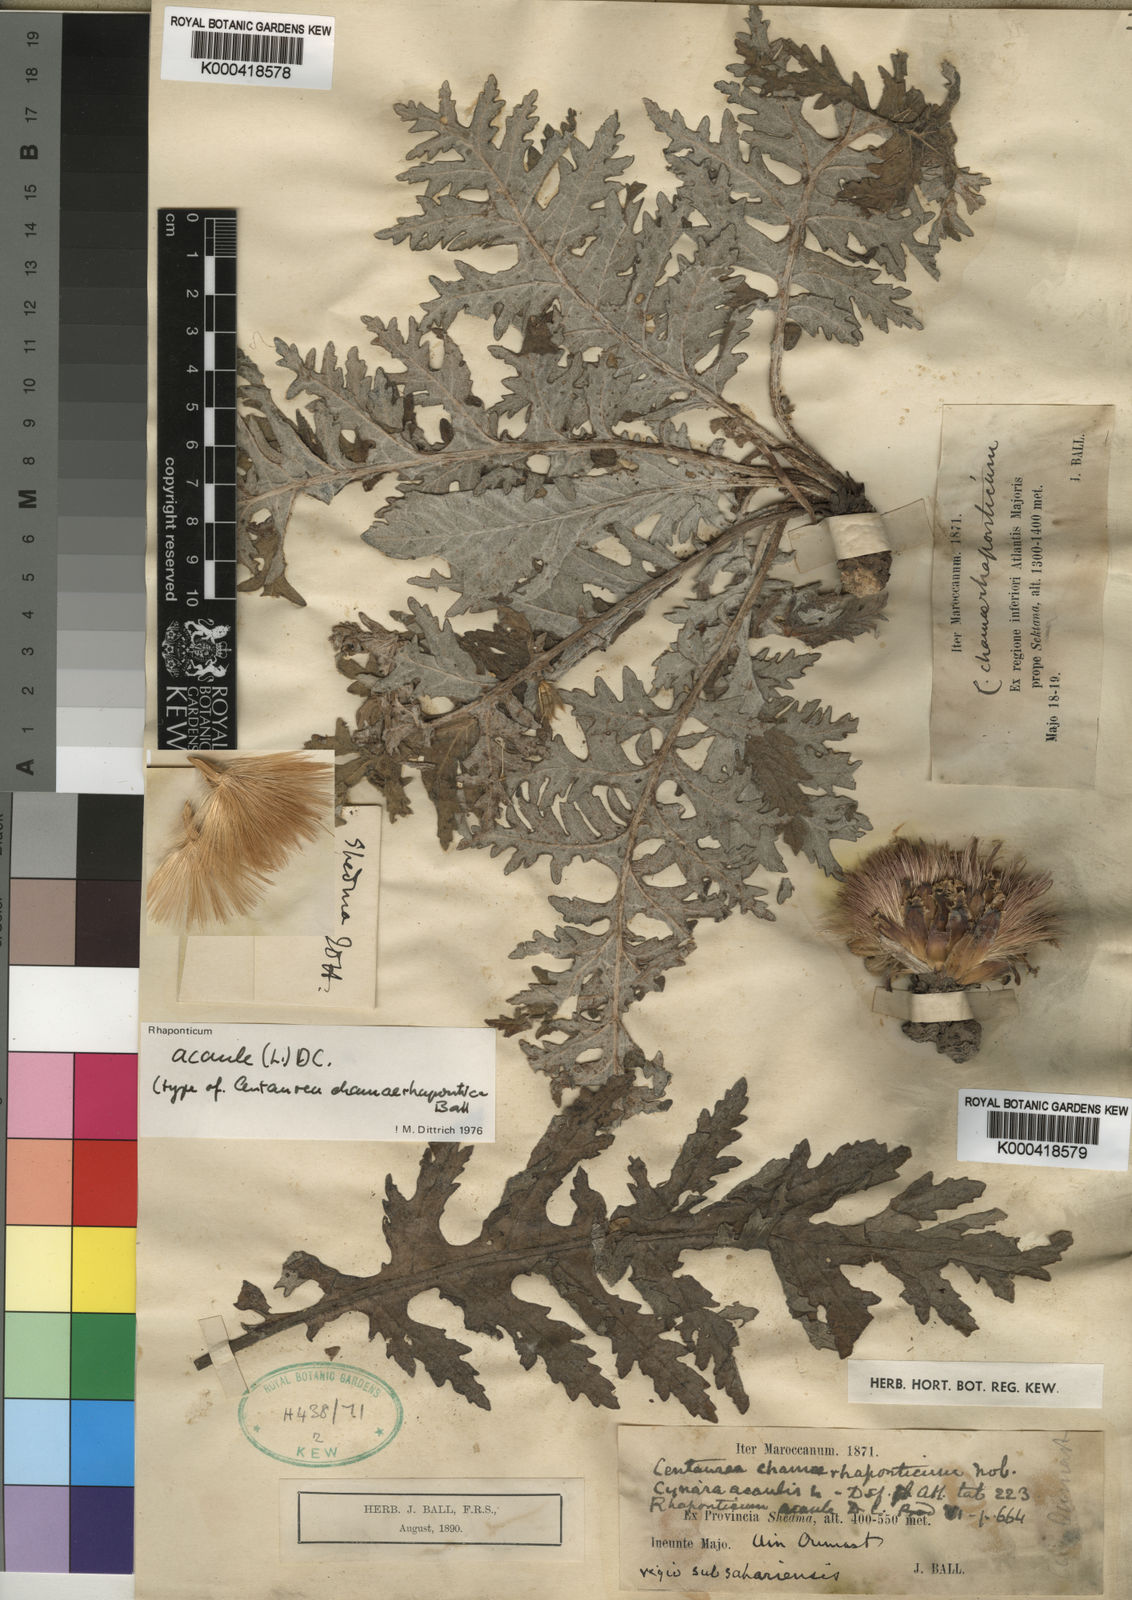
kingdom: Plantae
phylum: Tracheophyta
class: Magnoliopsida
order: Asterales
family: Asteraceae
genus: Leuzea
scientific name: Leuzea acaulis
